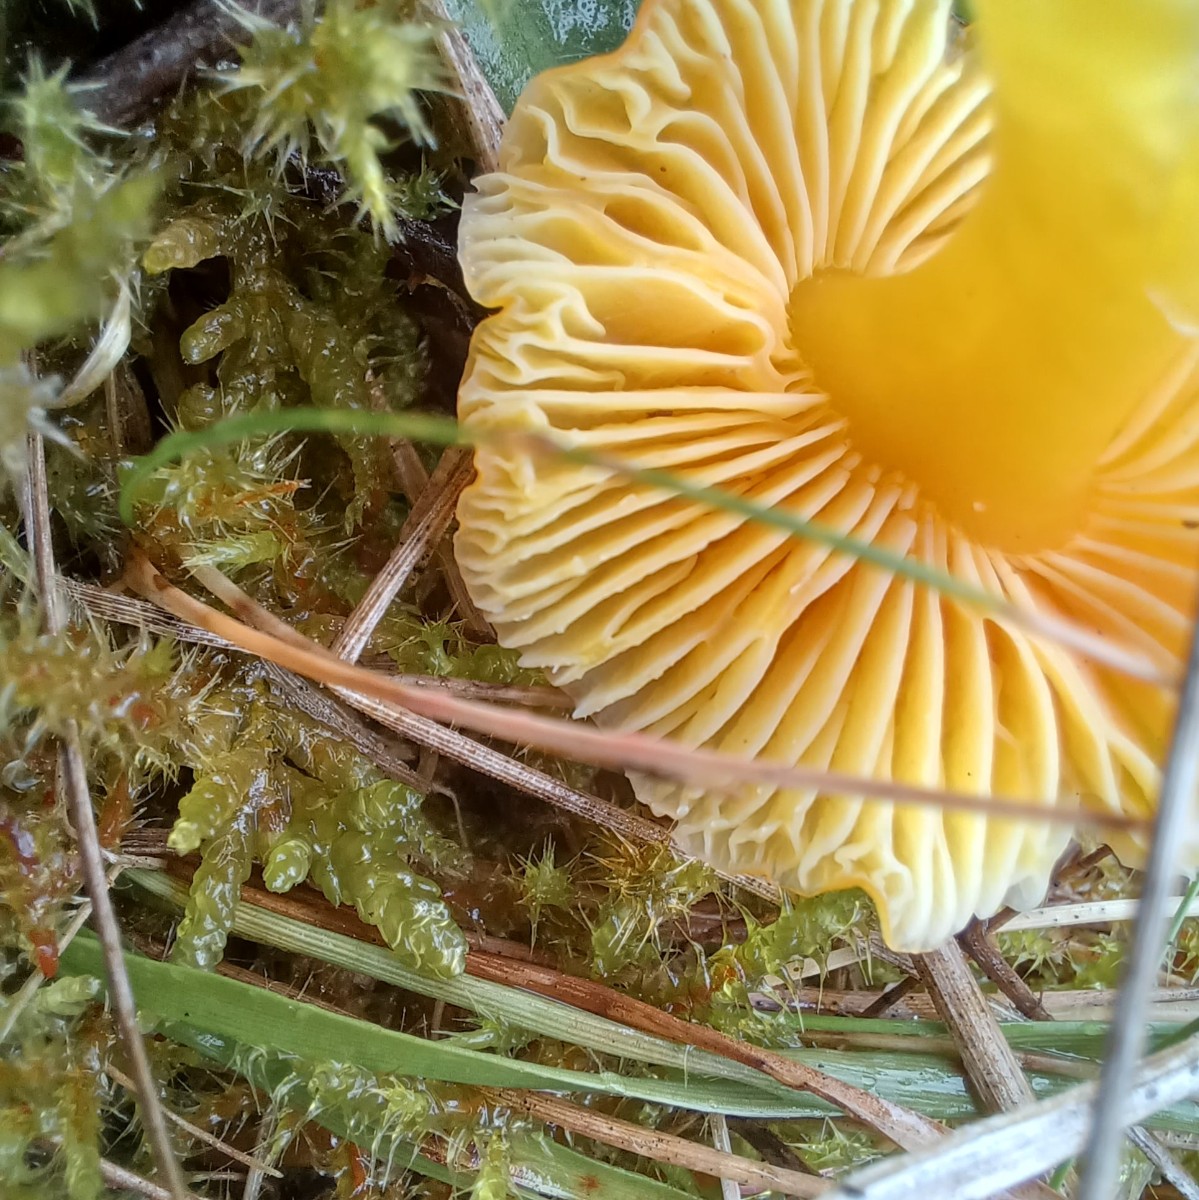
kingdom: Fungi
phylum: Basidiomycota
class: Agaricomycetes
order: Agaricales
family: Hygrophoraceae
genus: Hygrocybe
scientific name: Hygrocybe chlorophana
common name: gul vokshat
